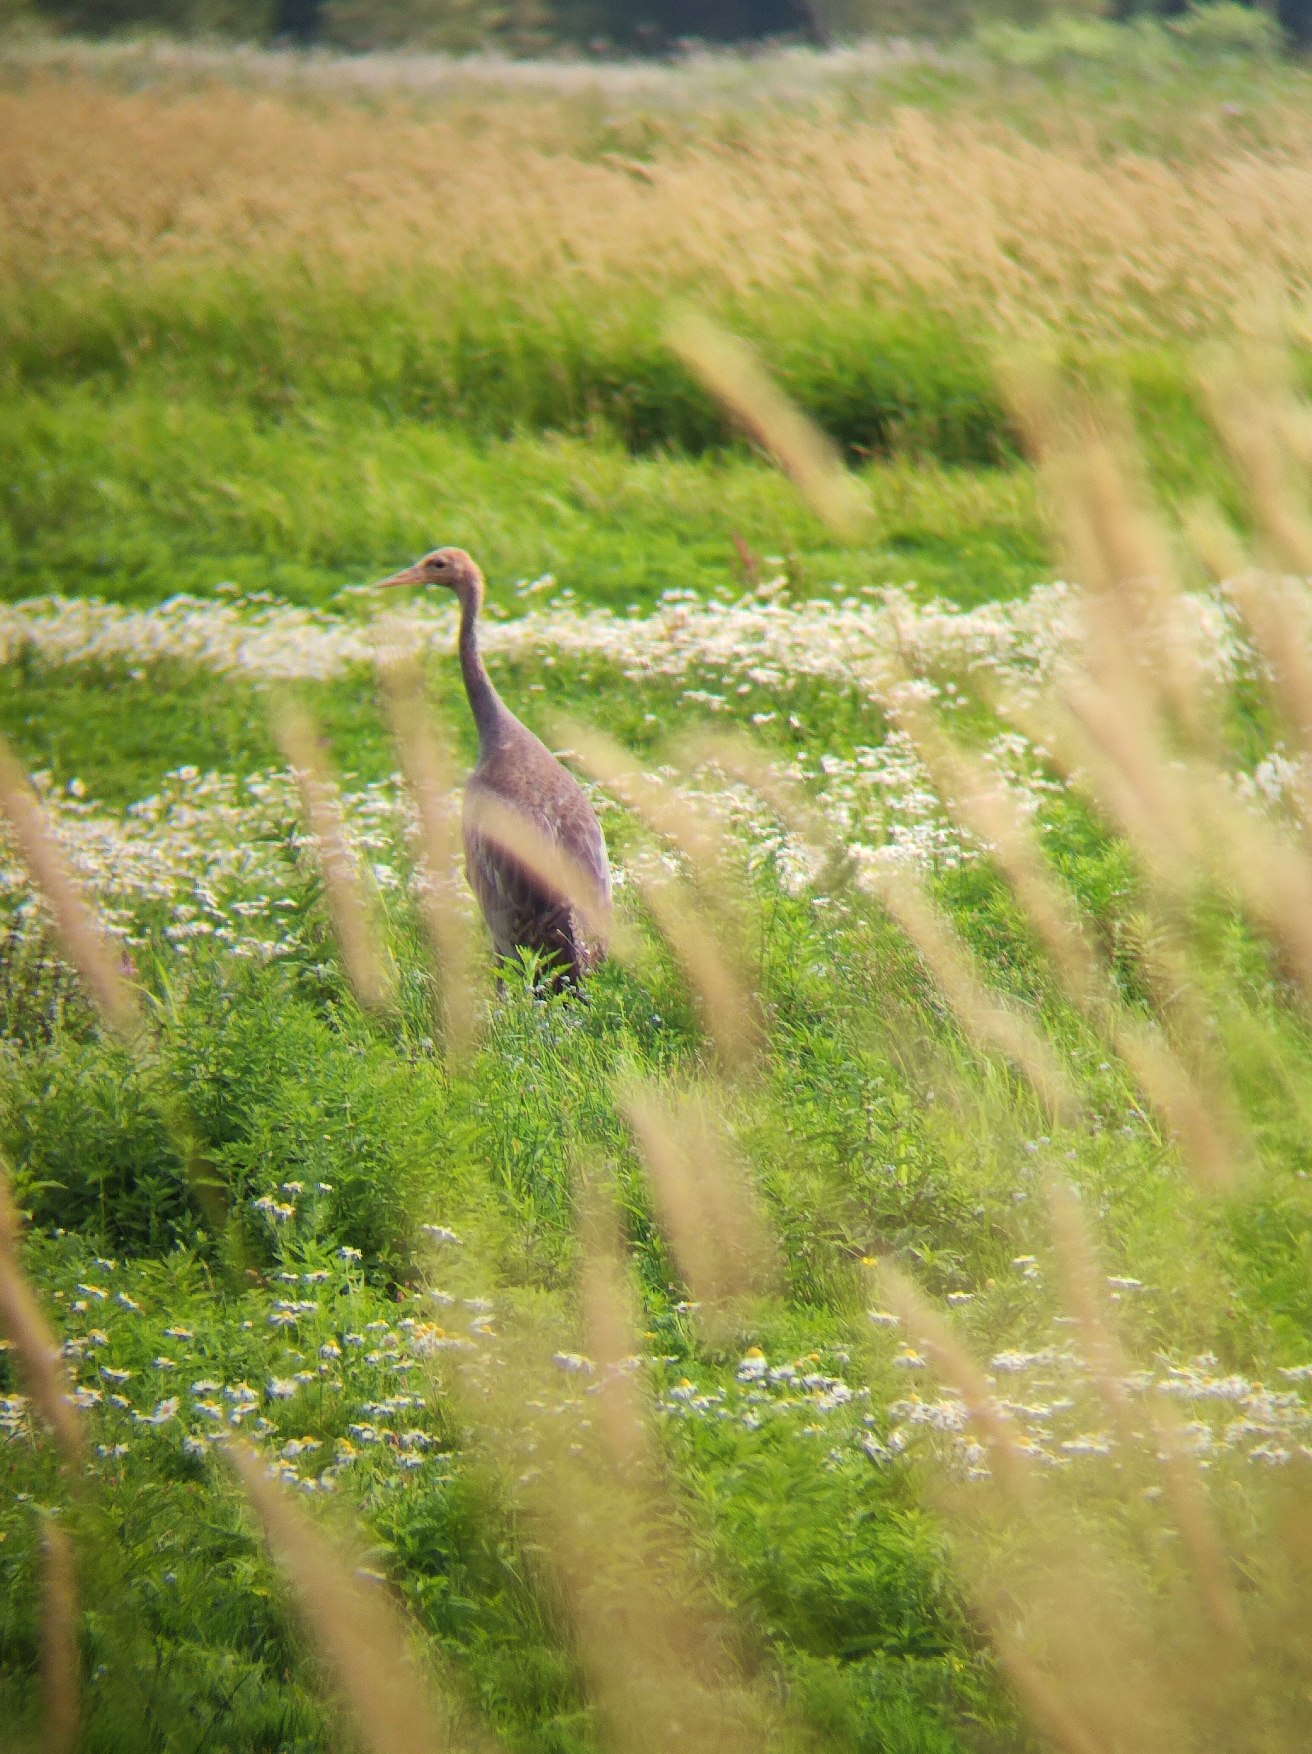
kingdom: Animalia
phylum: Chordata
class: Aves
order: Gruiformes
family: Gruidae
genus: Grus
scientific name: Grus grus
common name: Trane
